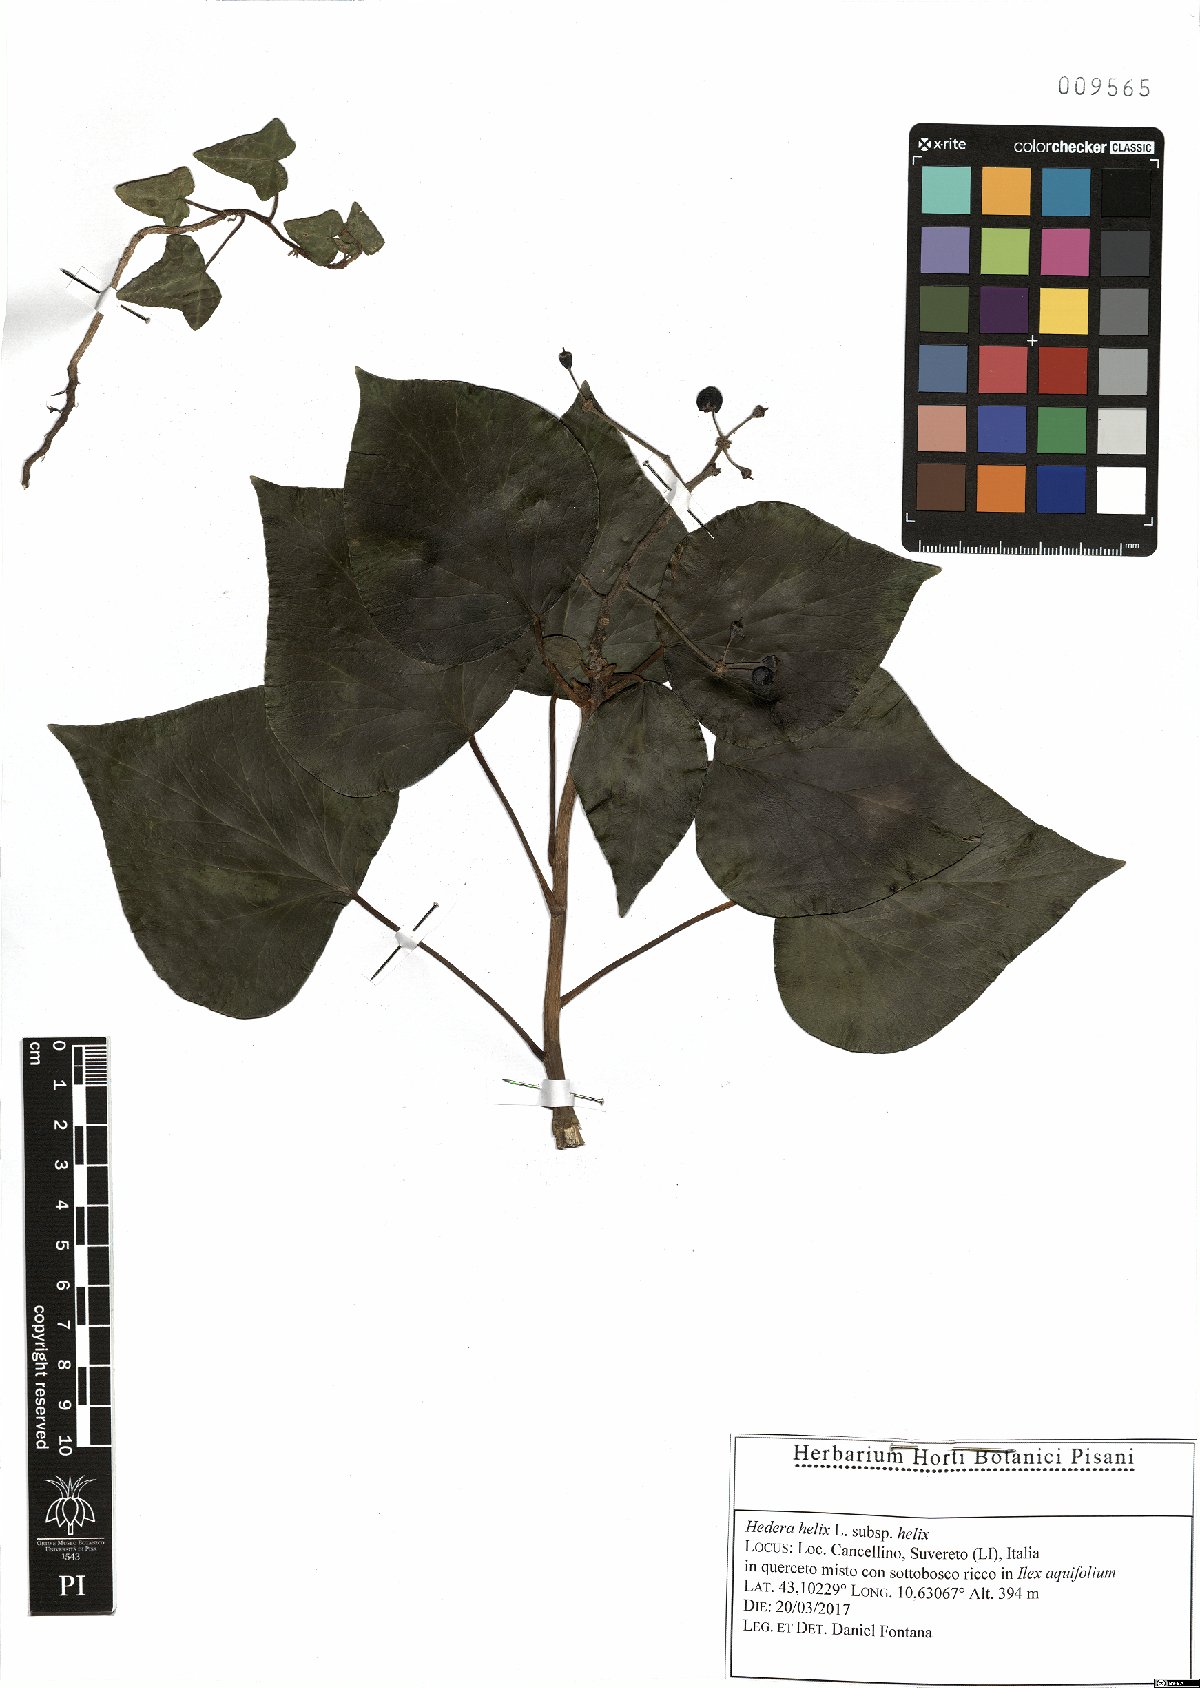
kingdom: Plantae
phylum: Tracheophyta
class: Magnoliopsida
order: Apiales
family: Araliaceae
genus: Hedera
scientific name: Hedera helix
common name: Ivy
